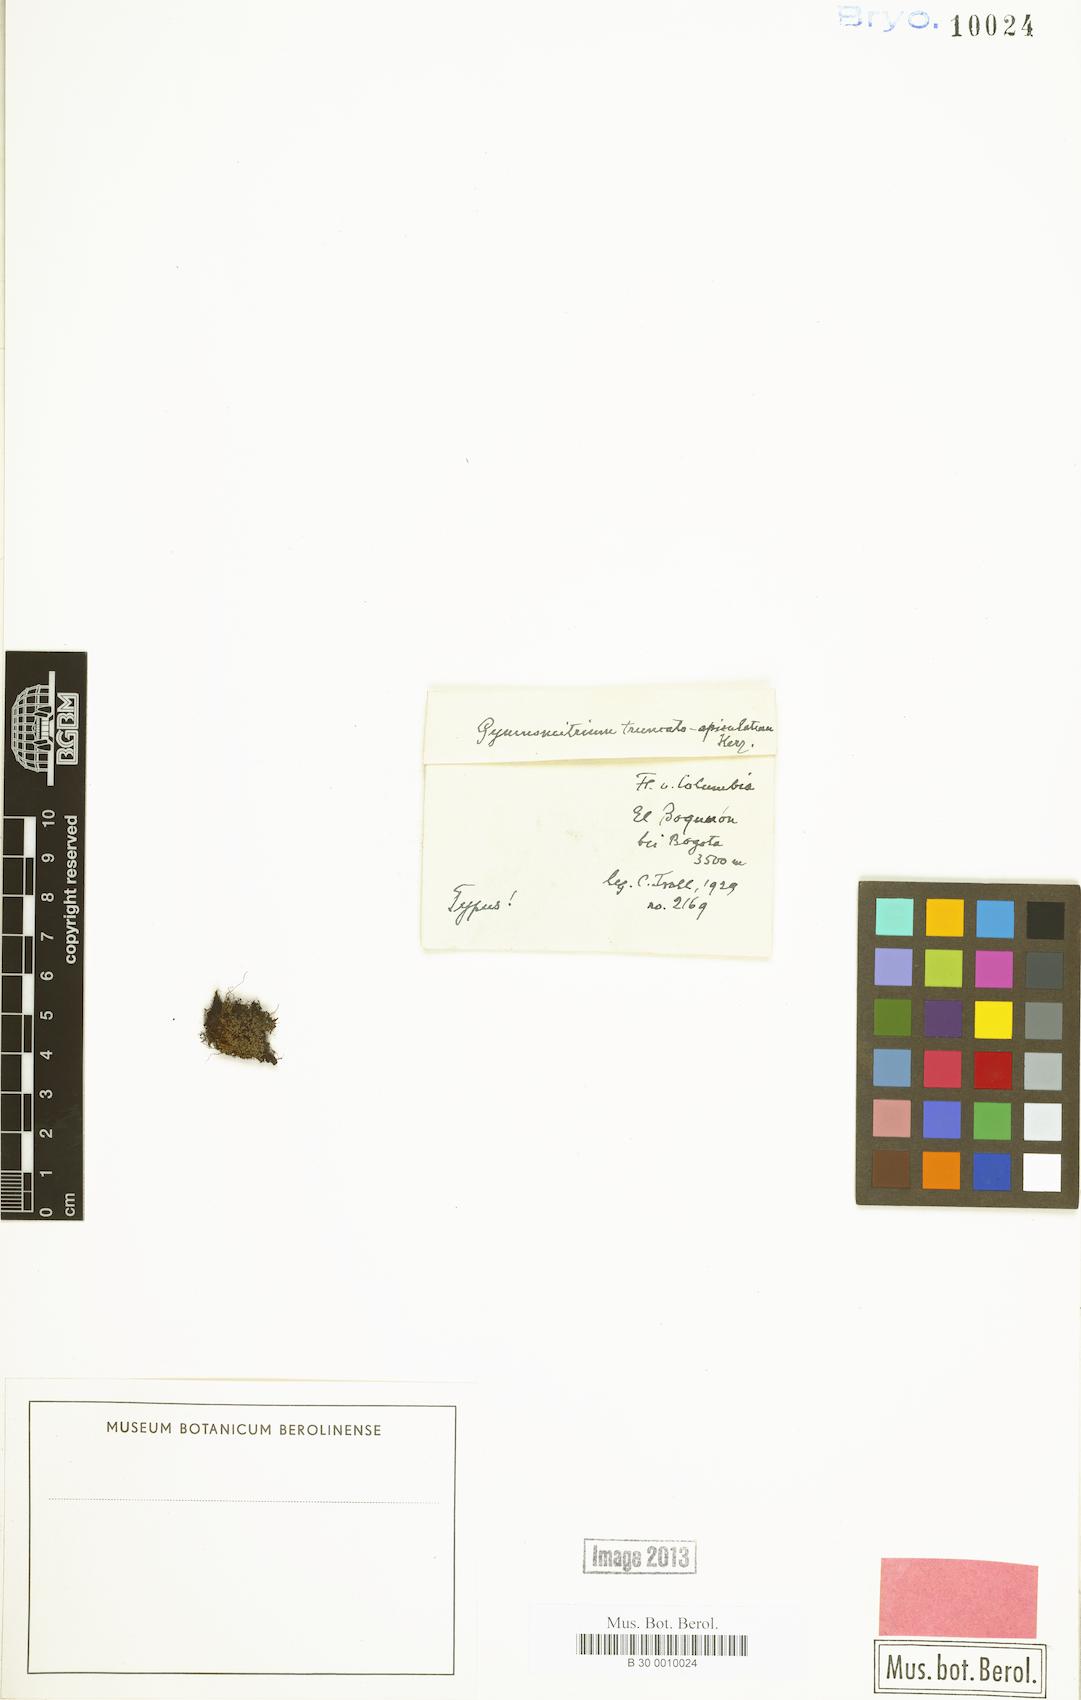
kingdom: Plantae
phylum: Marchantiophyta
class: Jungermanniopsida
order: Jungermanniales
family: Gymnomitriaceae
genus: Gymnomitrion
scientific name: Gymnomitrion truncatoapiculatum
